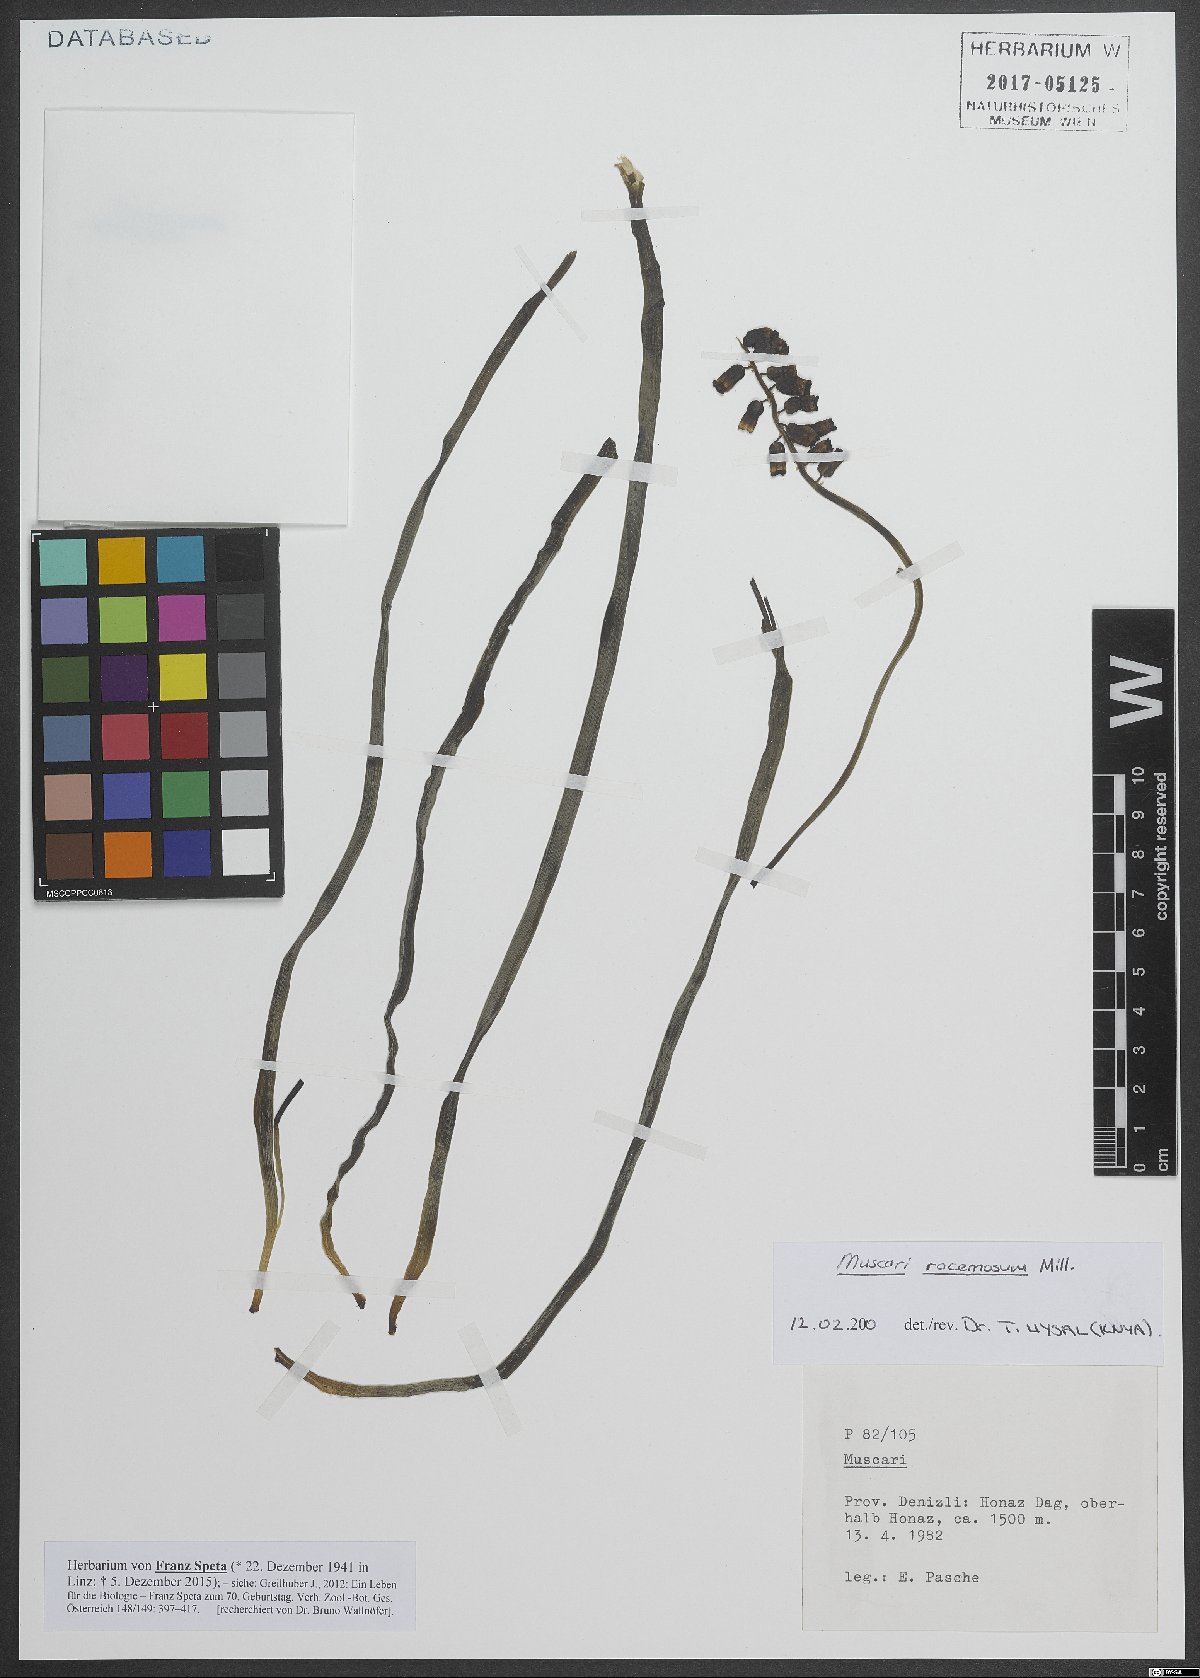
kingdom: Plantae
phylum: Tracheophyta
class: Liliopsida
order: Asparagales
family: Asparagaceae
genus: Muscarimia
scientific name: Muscarimia muscari
